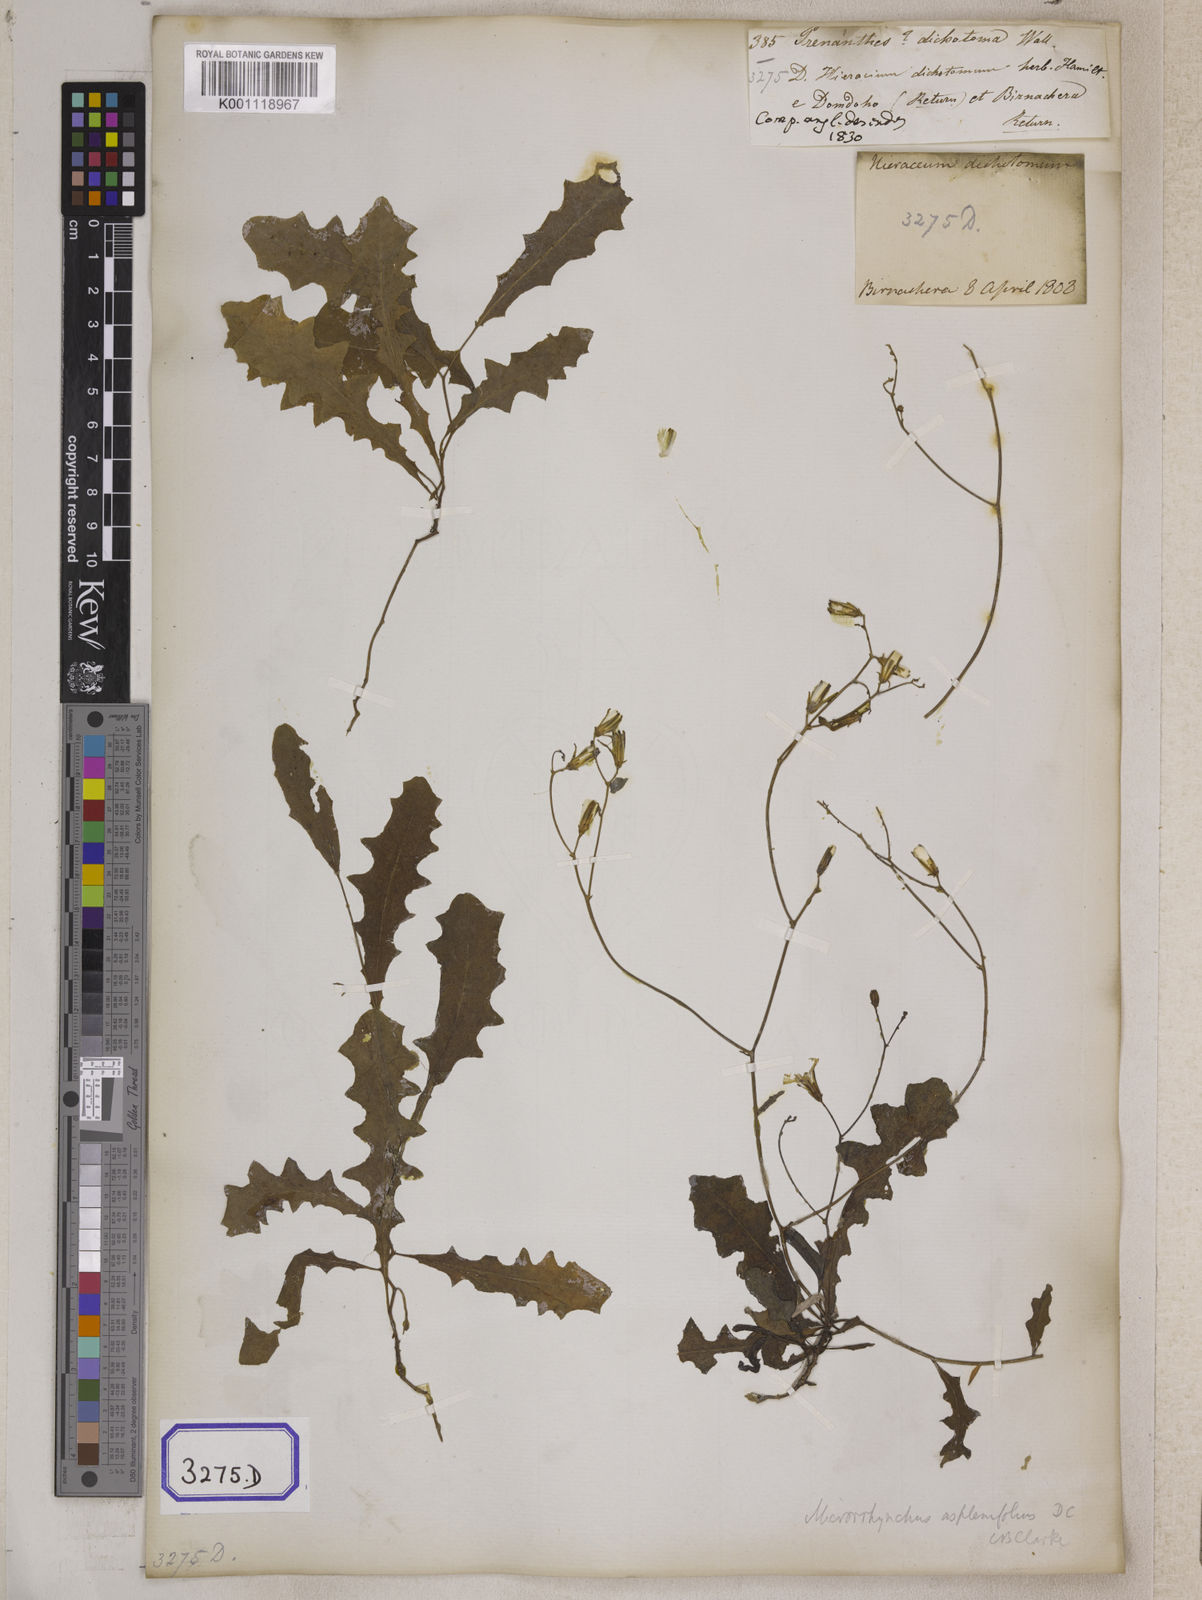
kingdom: Plantae
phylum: Tracheophyta
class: Magnoliopsida
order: Asterales
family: Asteraceae
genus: Launaea
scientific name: Launaea aspleniifolia
